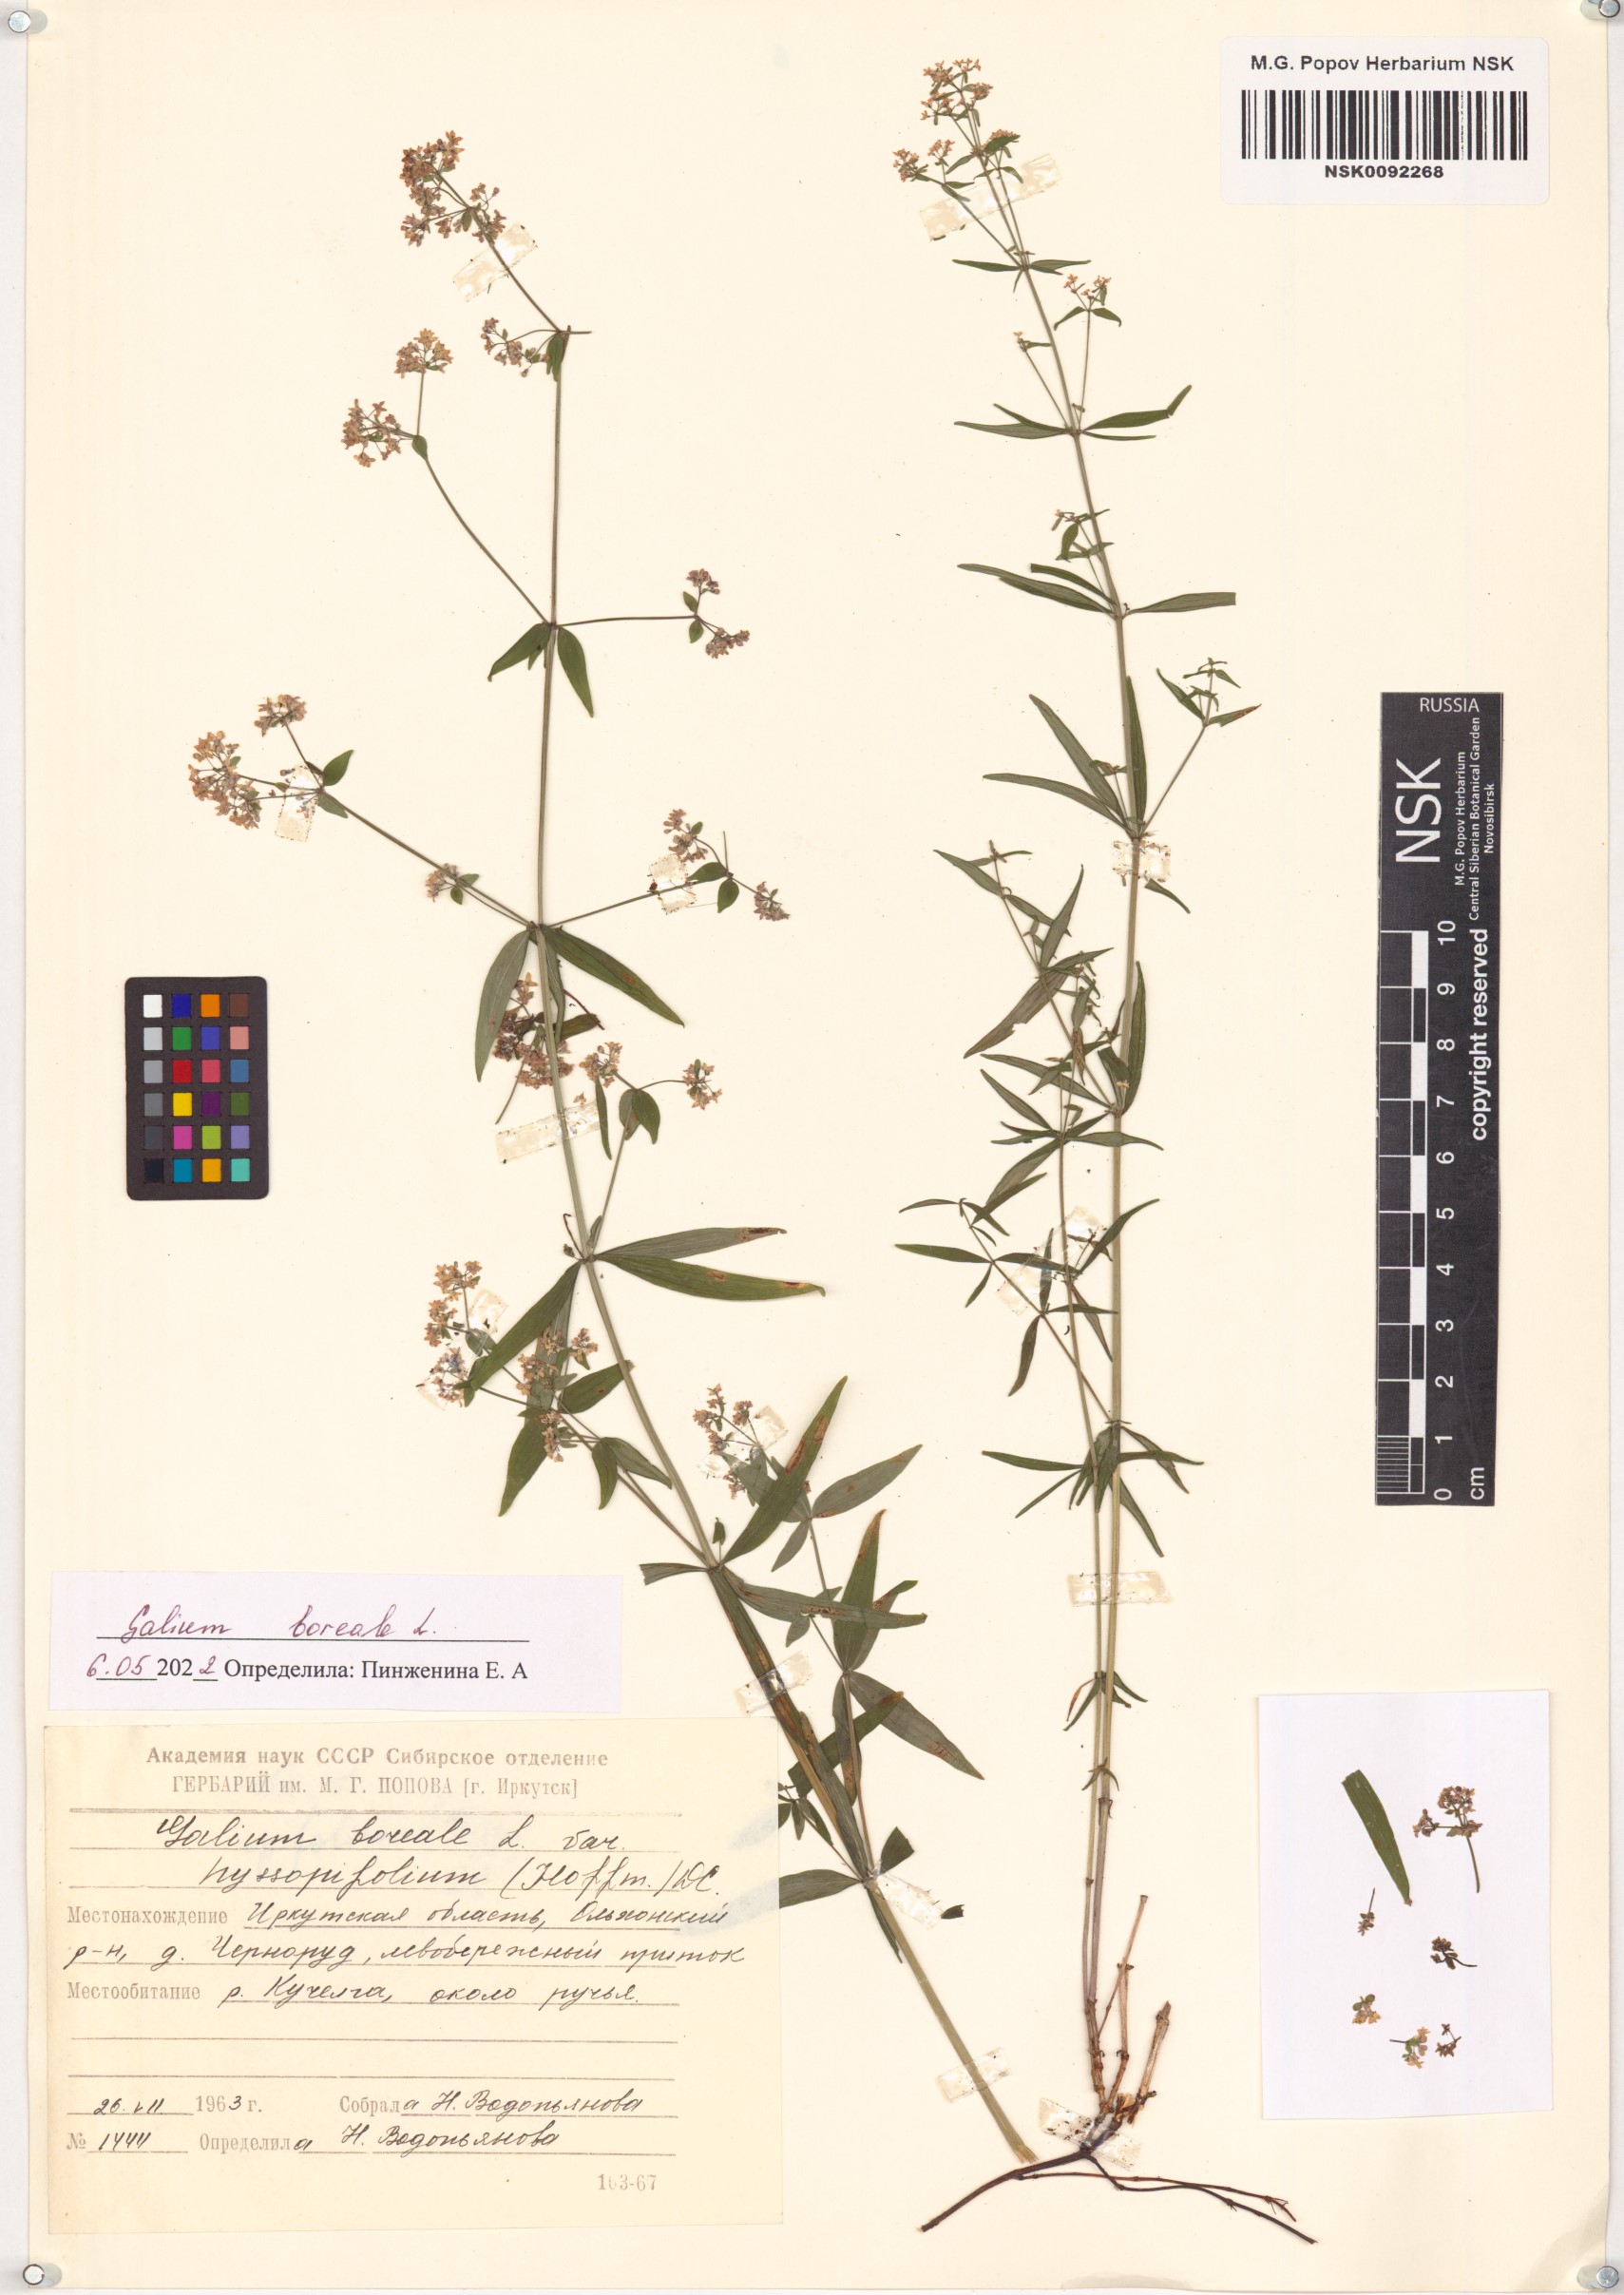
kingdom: Plantae
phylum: Tracheophyta
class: Magnoliopsida
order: Gentianales
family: Rubiaceae
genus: Galium
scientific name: Galium boreale
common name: Northern bedstraw
